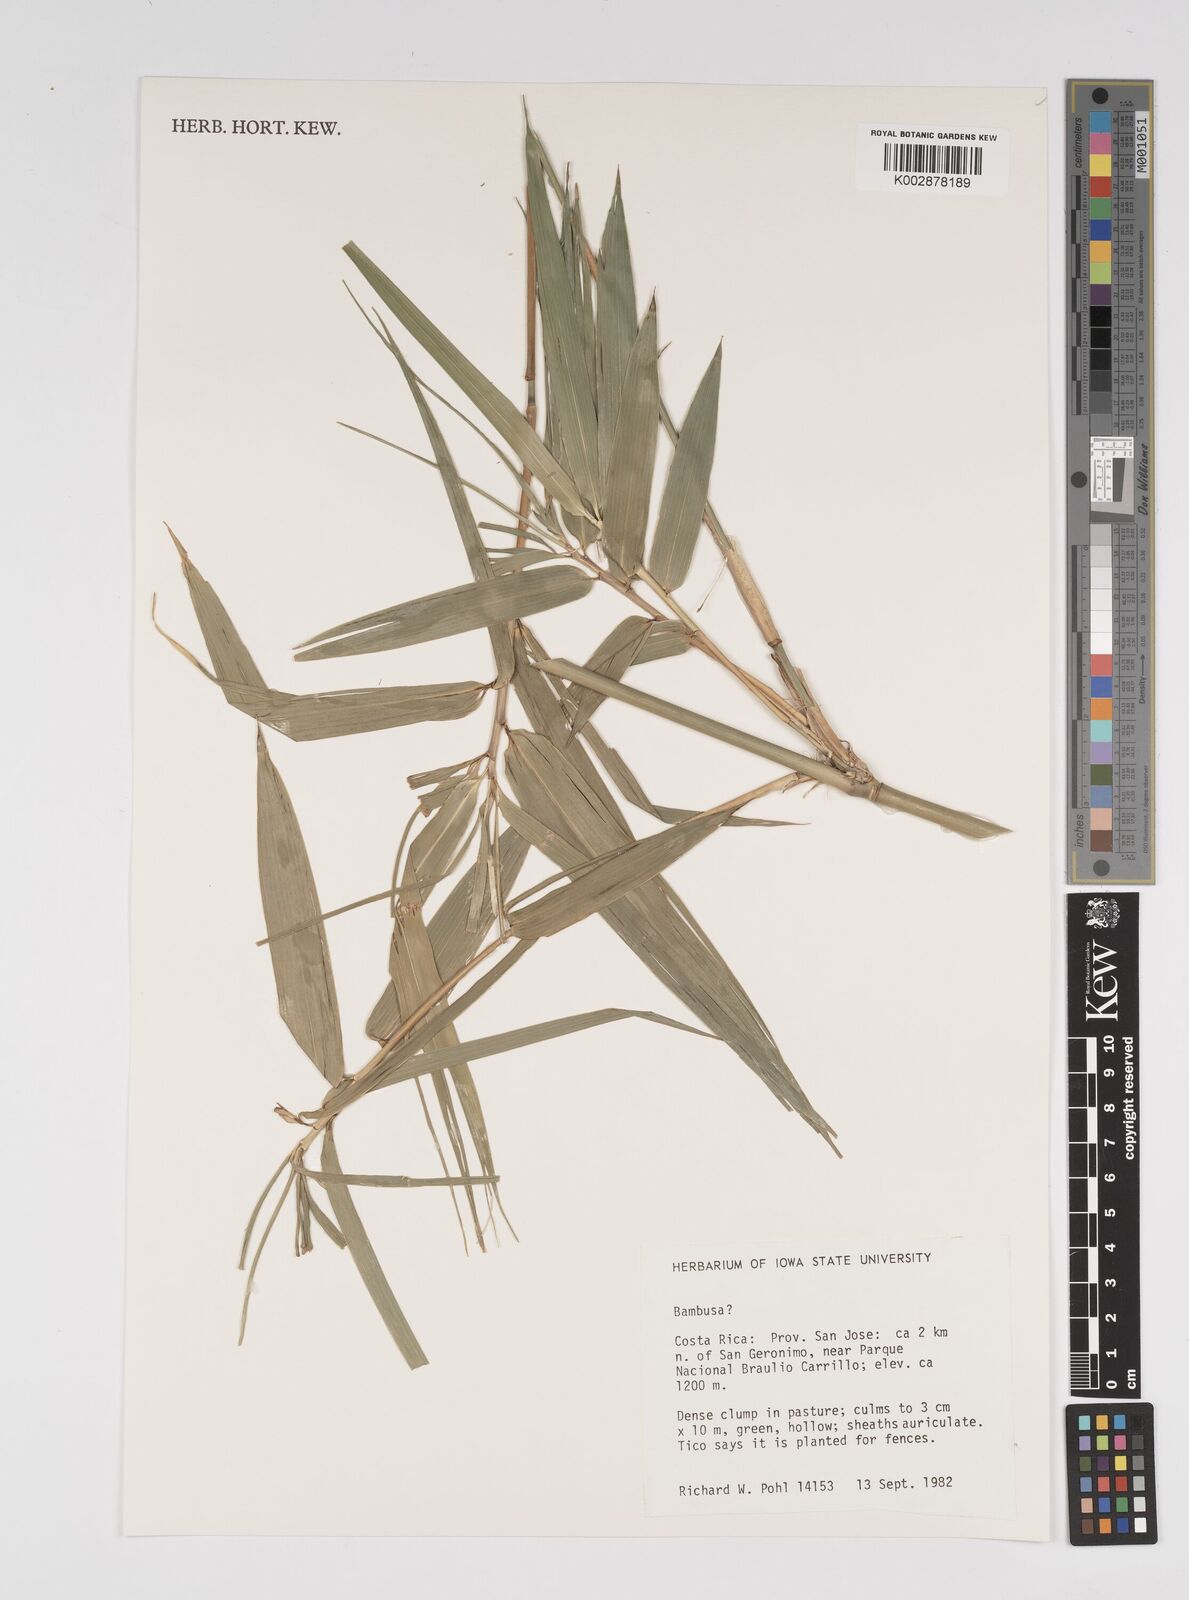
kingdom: Plantae
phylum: Tracheophyta
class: Liliopsida
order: Poales
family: Poaceae
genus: Bambusa
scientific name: Bambusa
